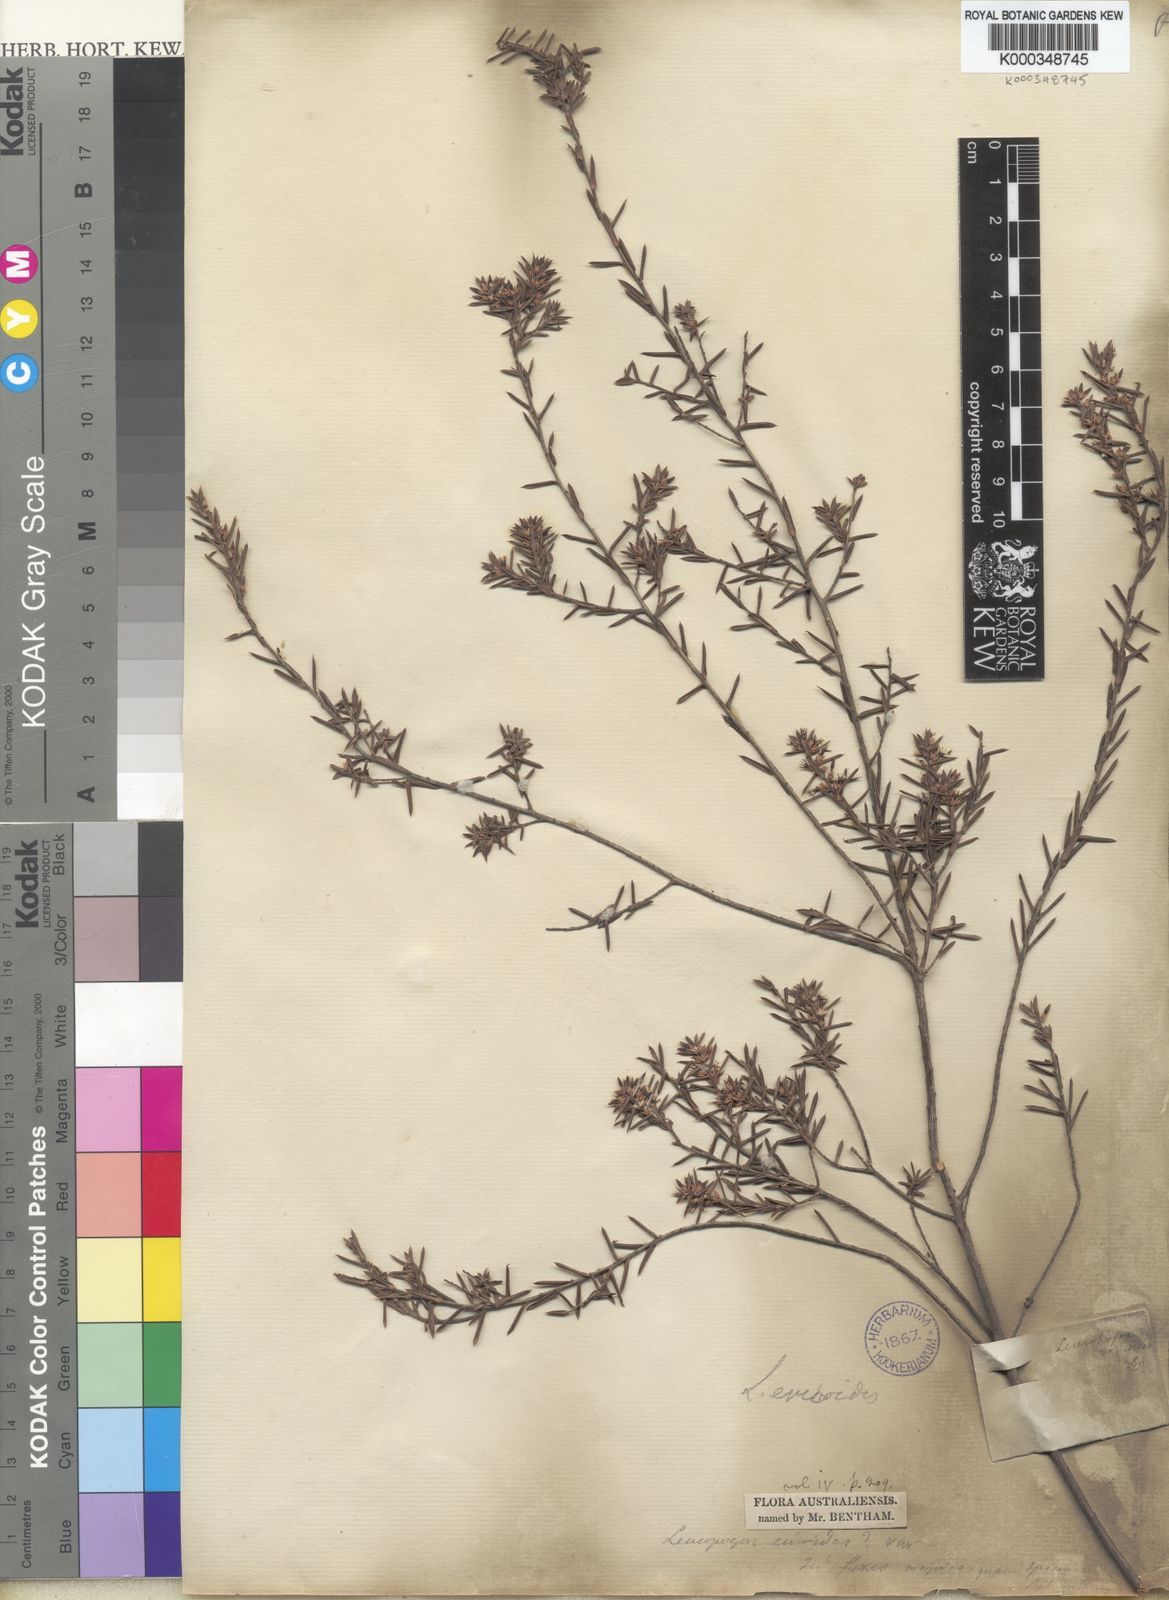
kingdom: Plantae
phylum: Tracheophyta
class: Magnoliopsida
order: Ericales
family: Ericaceae
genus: Styphelia
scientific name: Styphelia ericoides
